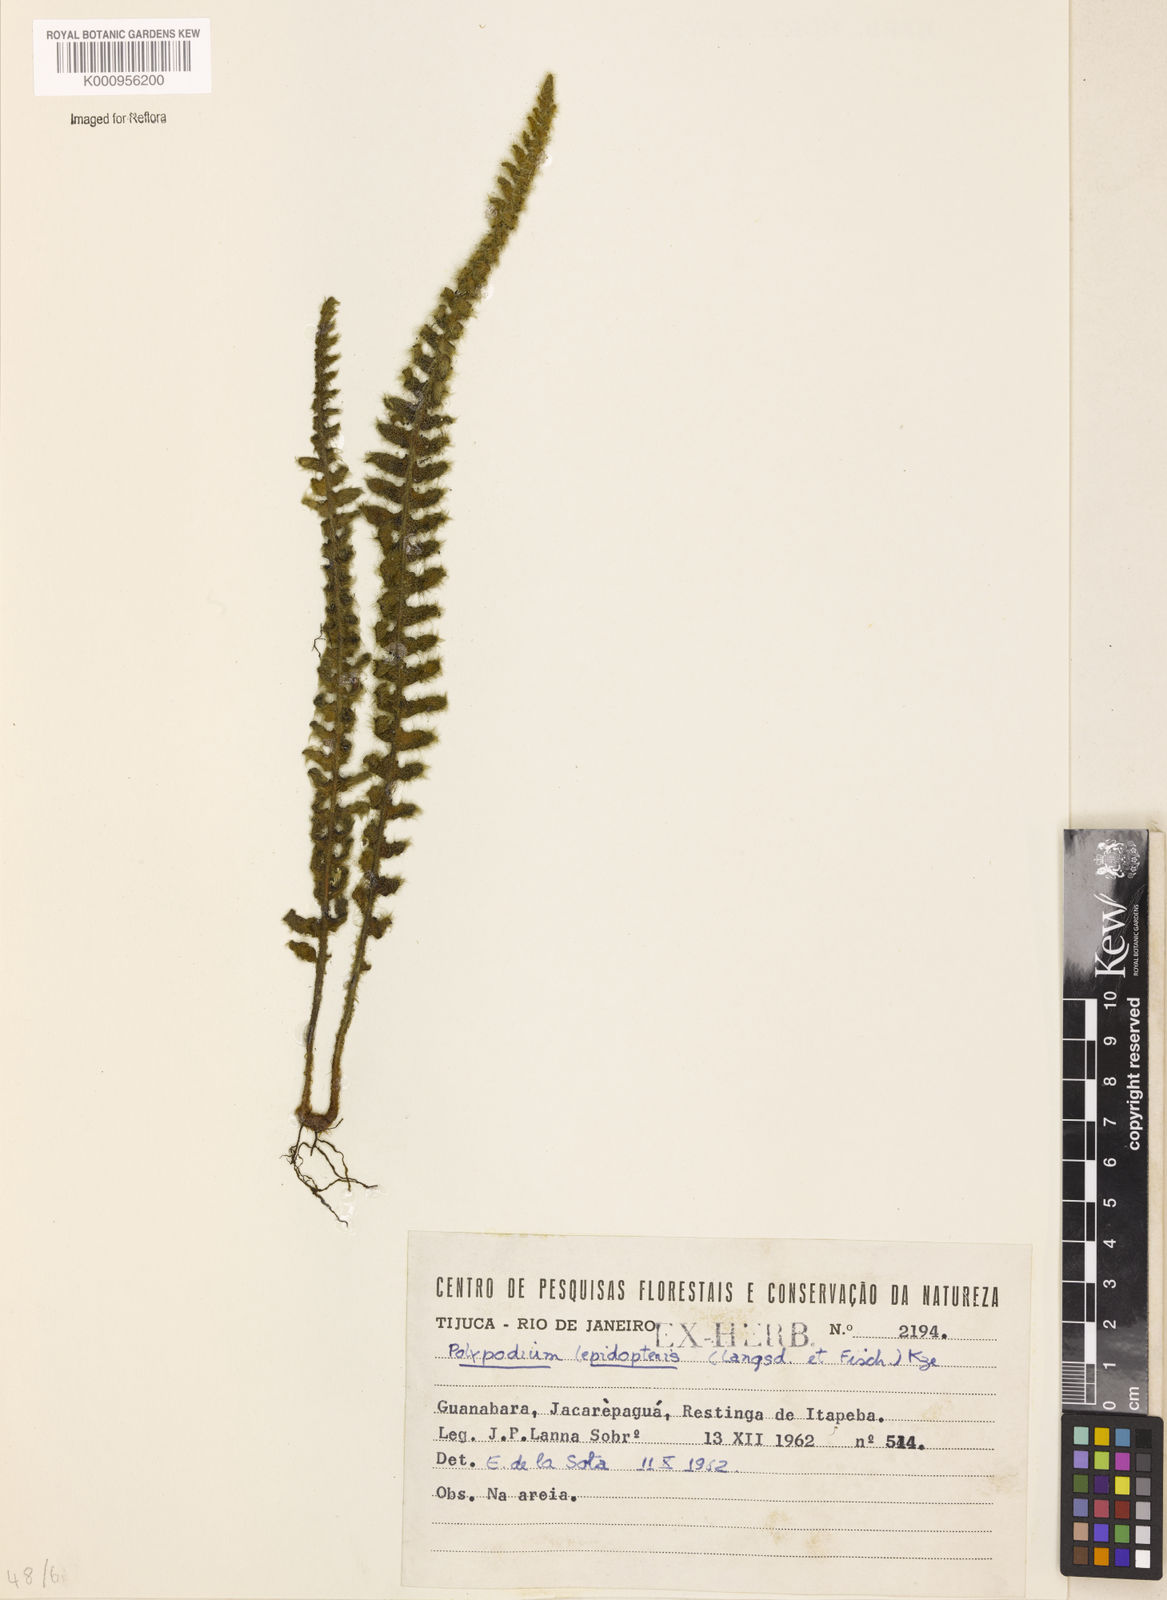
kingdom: Plantae
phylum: Tracheophyta
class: Polypodiopsida
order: Polypodiales
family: Polypodiaceae
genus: Pleopeltis
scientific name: Pleopeltis lepidopteris
